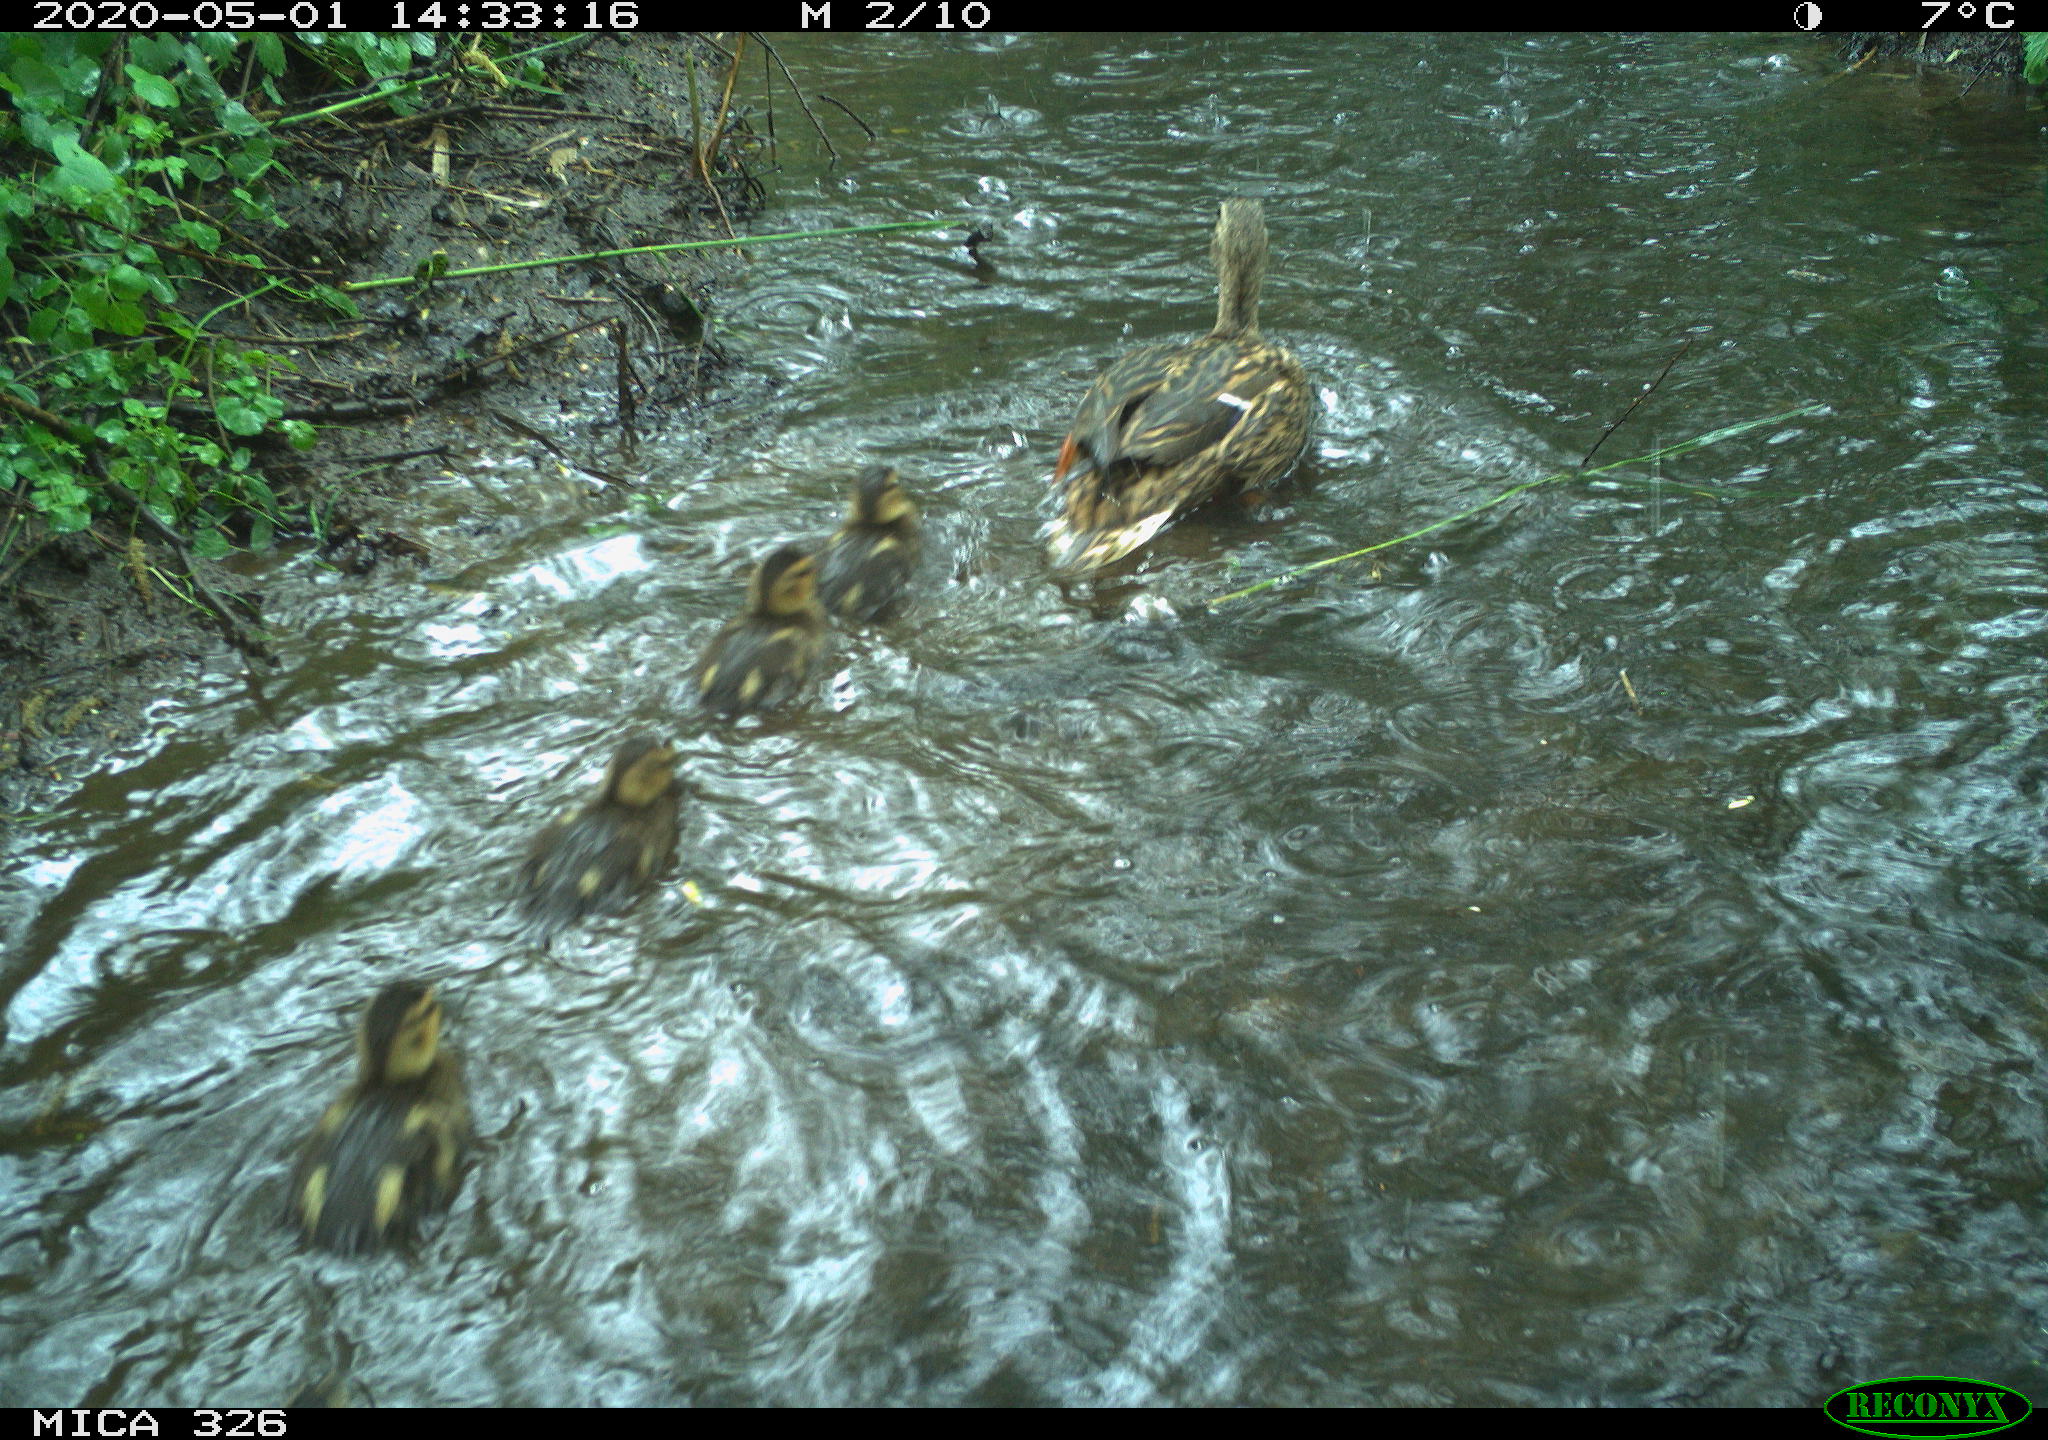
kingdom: Animalia
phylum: Chordata
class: Aves
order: Anseriformes
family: Anatidae
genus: Anas
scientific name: Anas platyrhynchos
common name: Mallard
